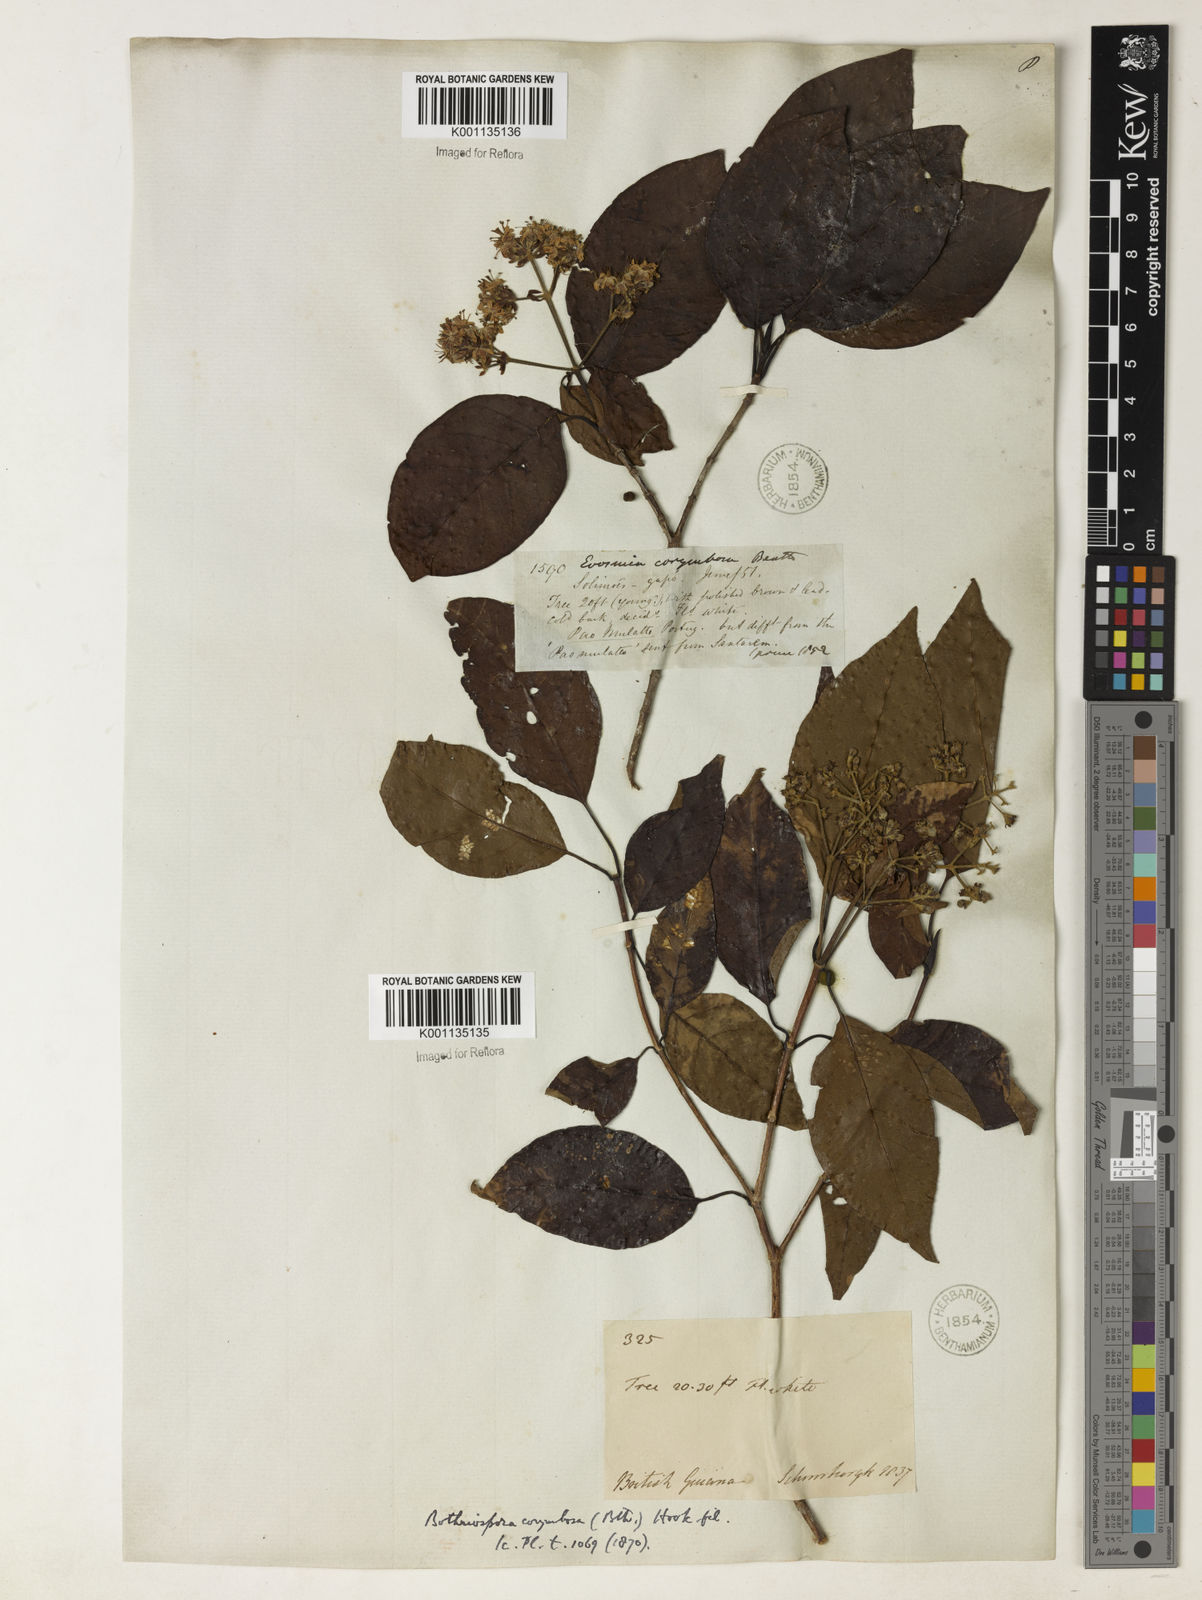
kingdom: Plantae
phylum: Tracheophyta
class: Magnoliopsida
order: Gentianales
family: Rubiaceae
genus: Bothriospora
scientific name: Bothriospora corymbosa
